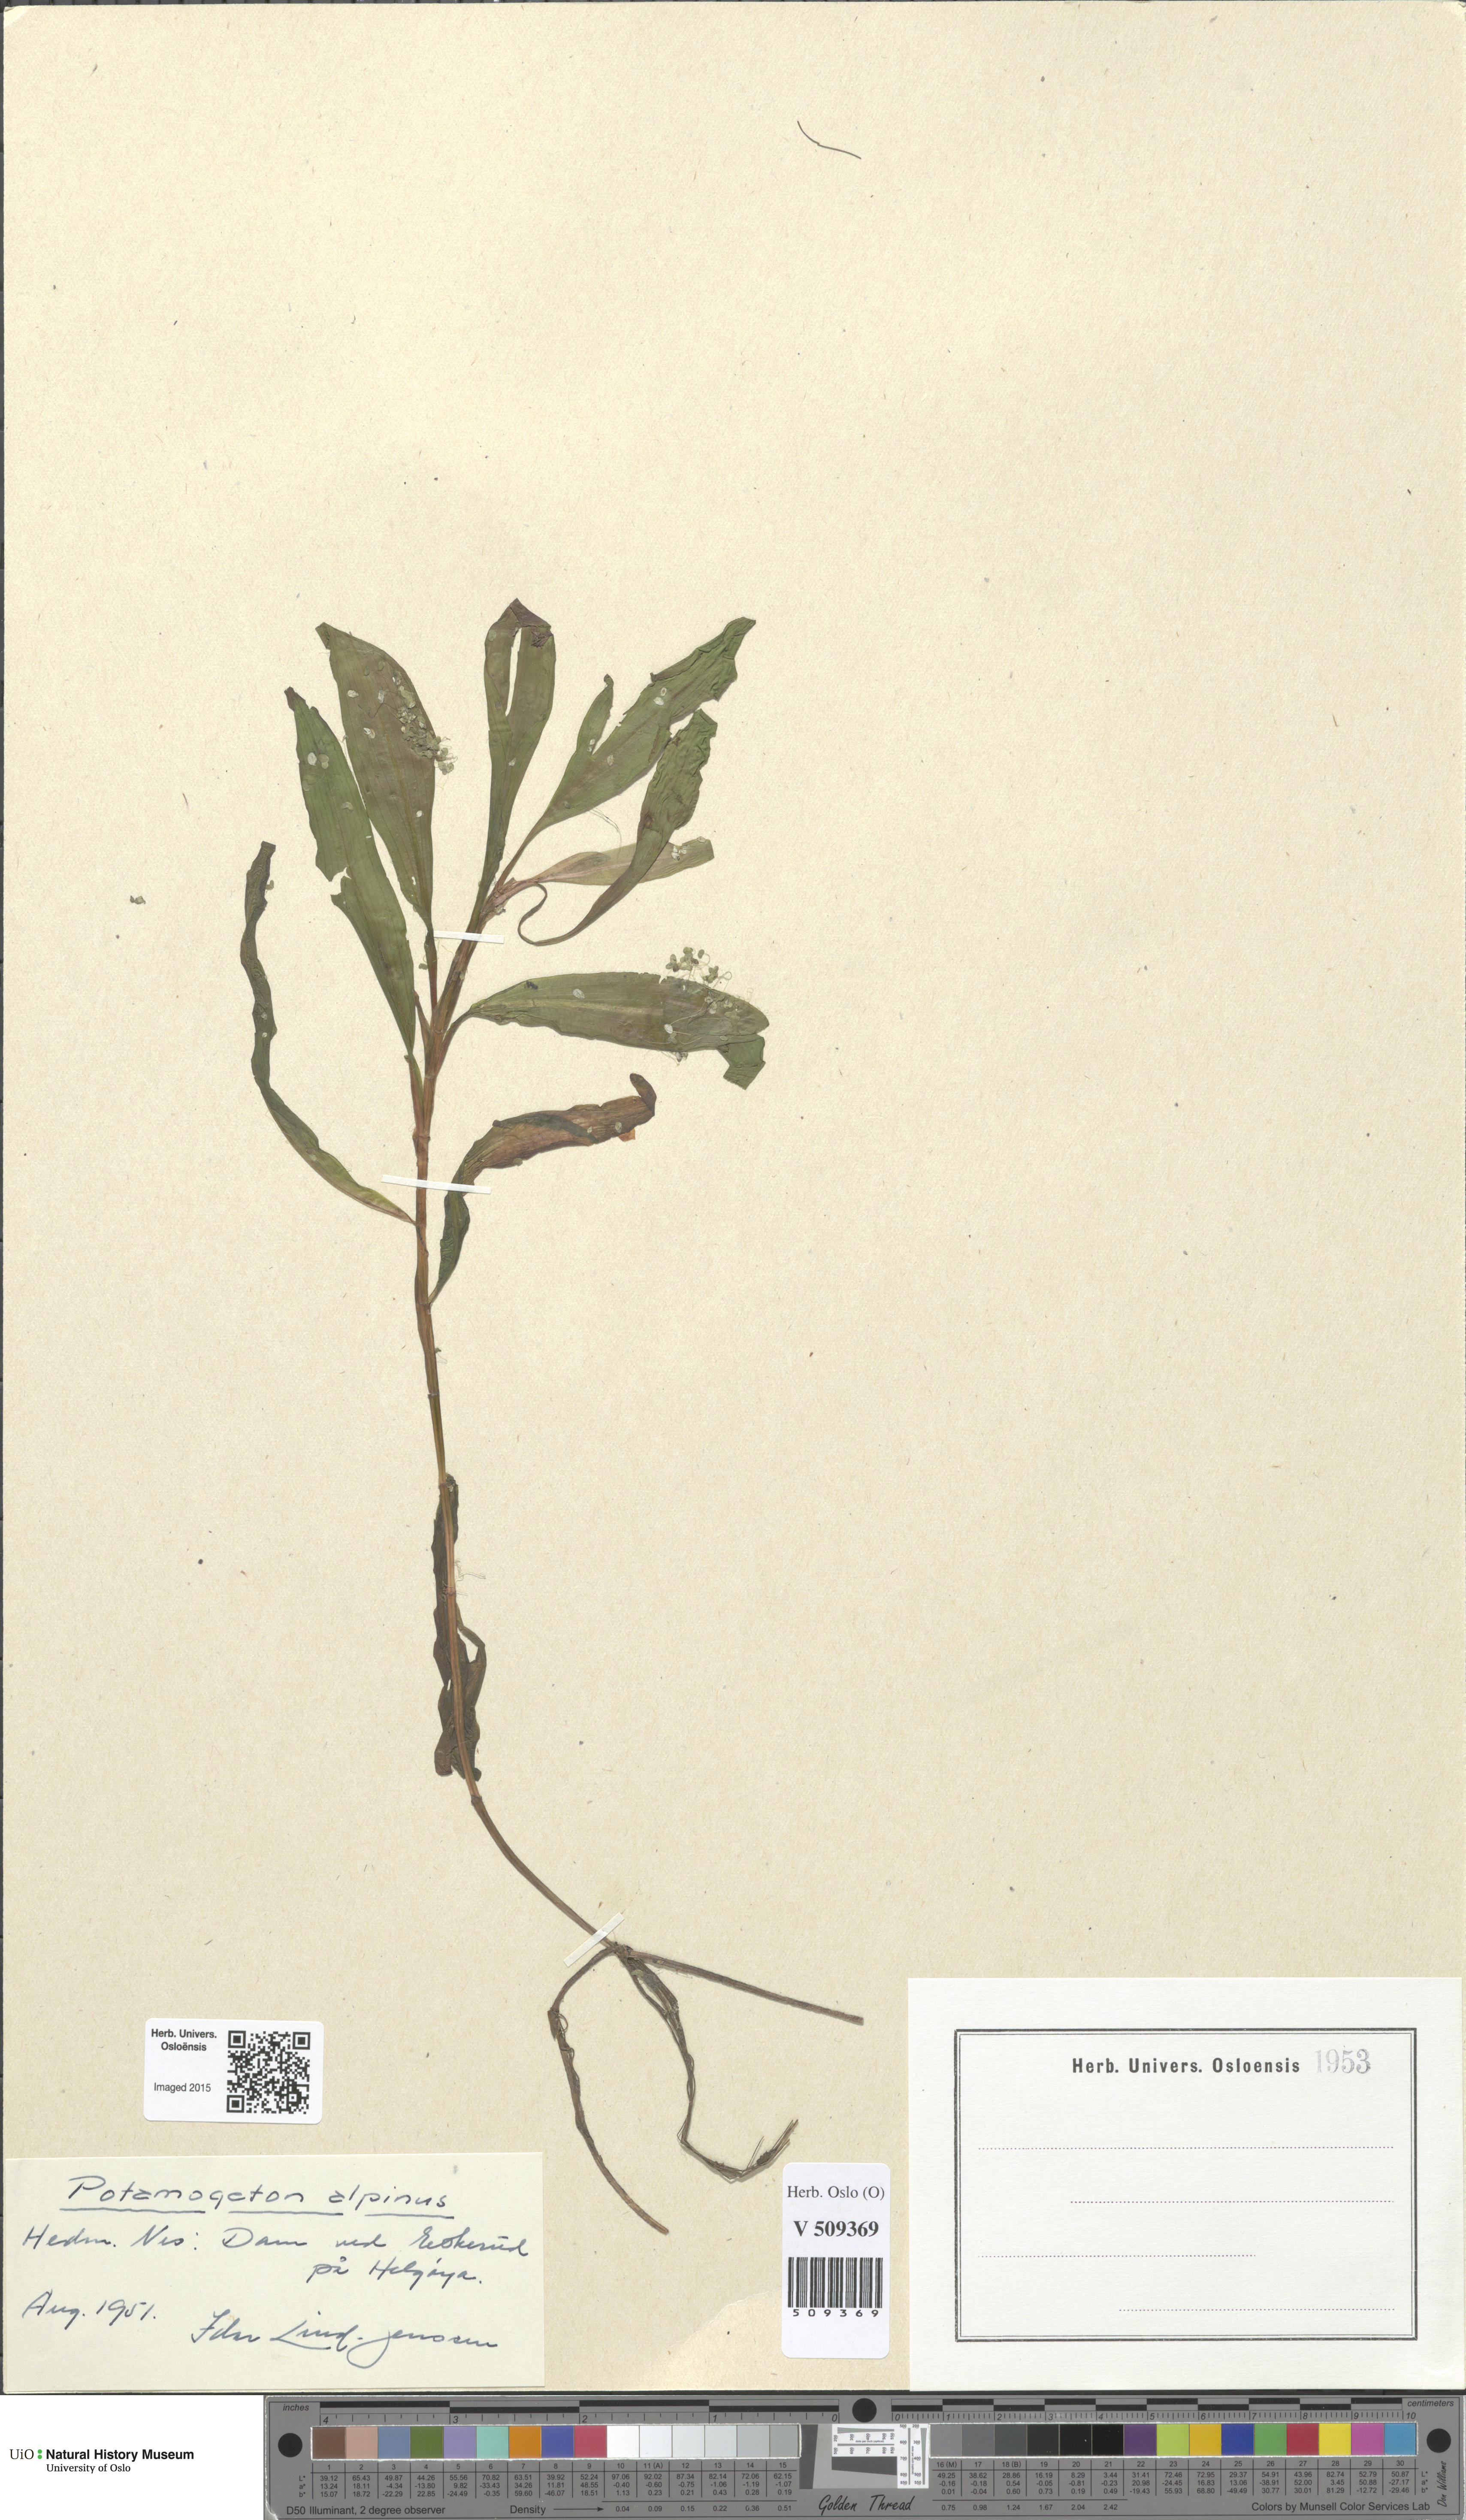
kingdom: Plantae
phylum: Tracheophyta
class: Liliopsida
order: Alismatales
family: Potamogetonaceae
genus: Potamogeton
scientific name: Potamogeton alpinus
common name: Red pondweed
